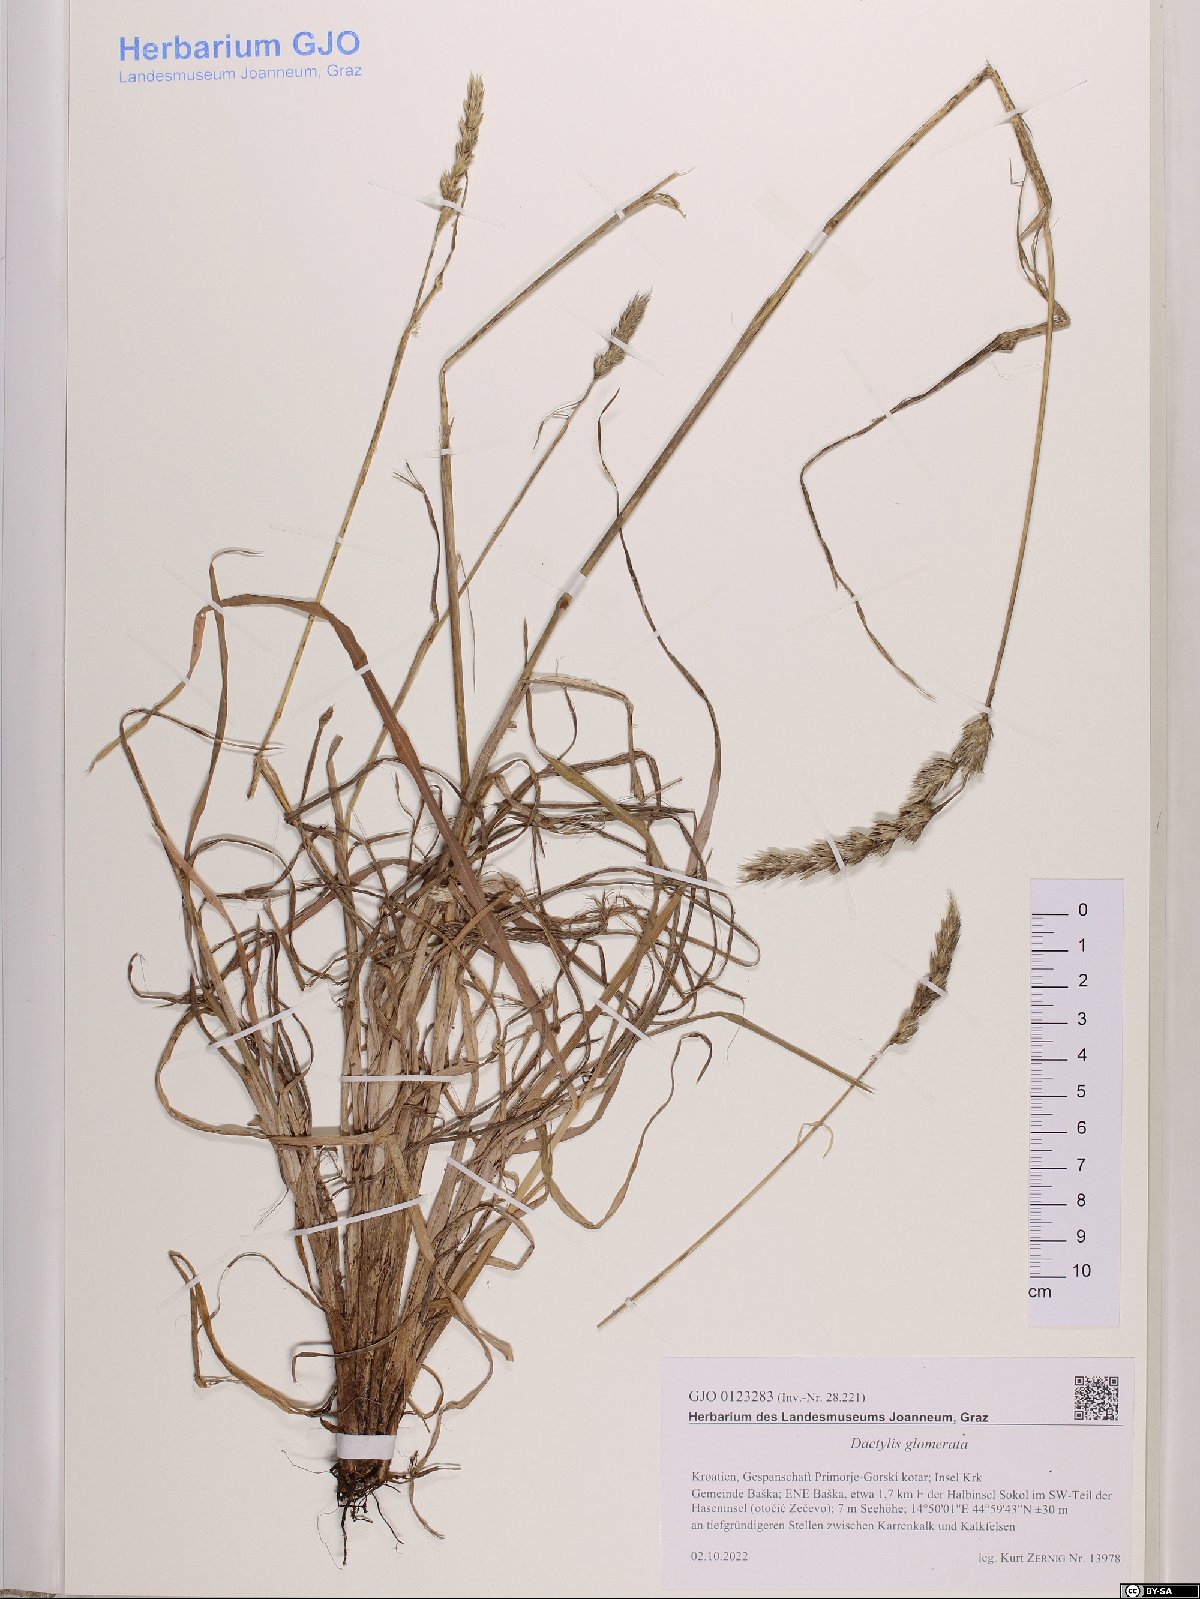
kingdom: Plantae
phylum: Tracheophyta
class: Liliopsida
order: Poales
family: Poaceae
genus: Dactylis
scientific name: Dactylis glomerata
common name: Orchardgrass
